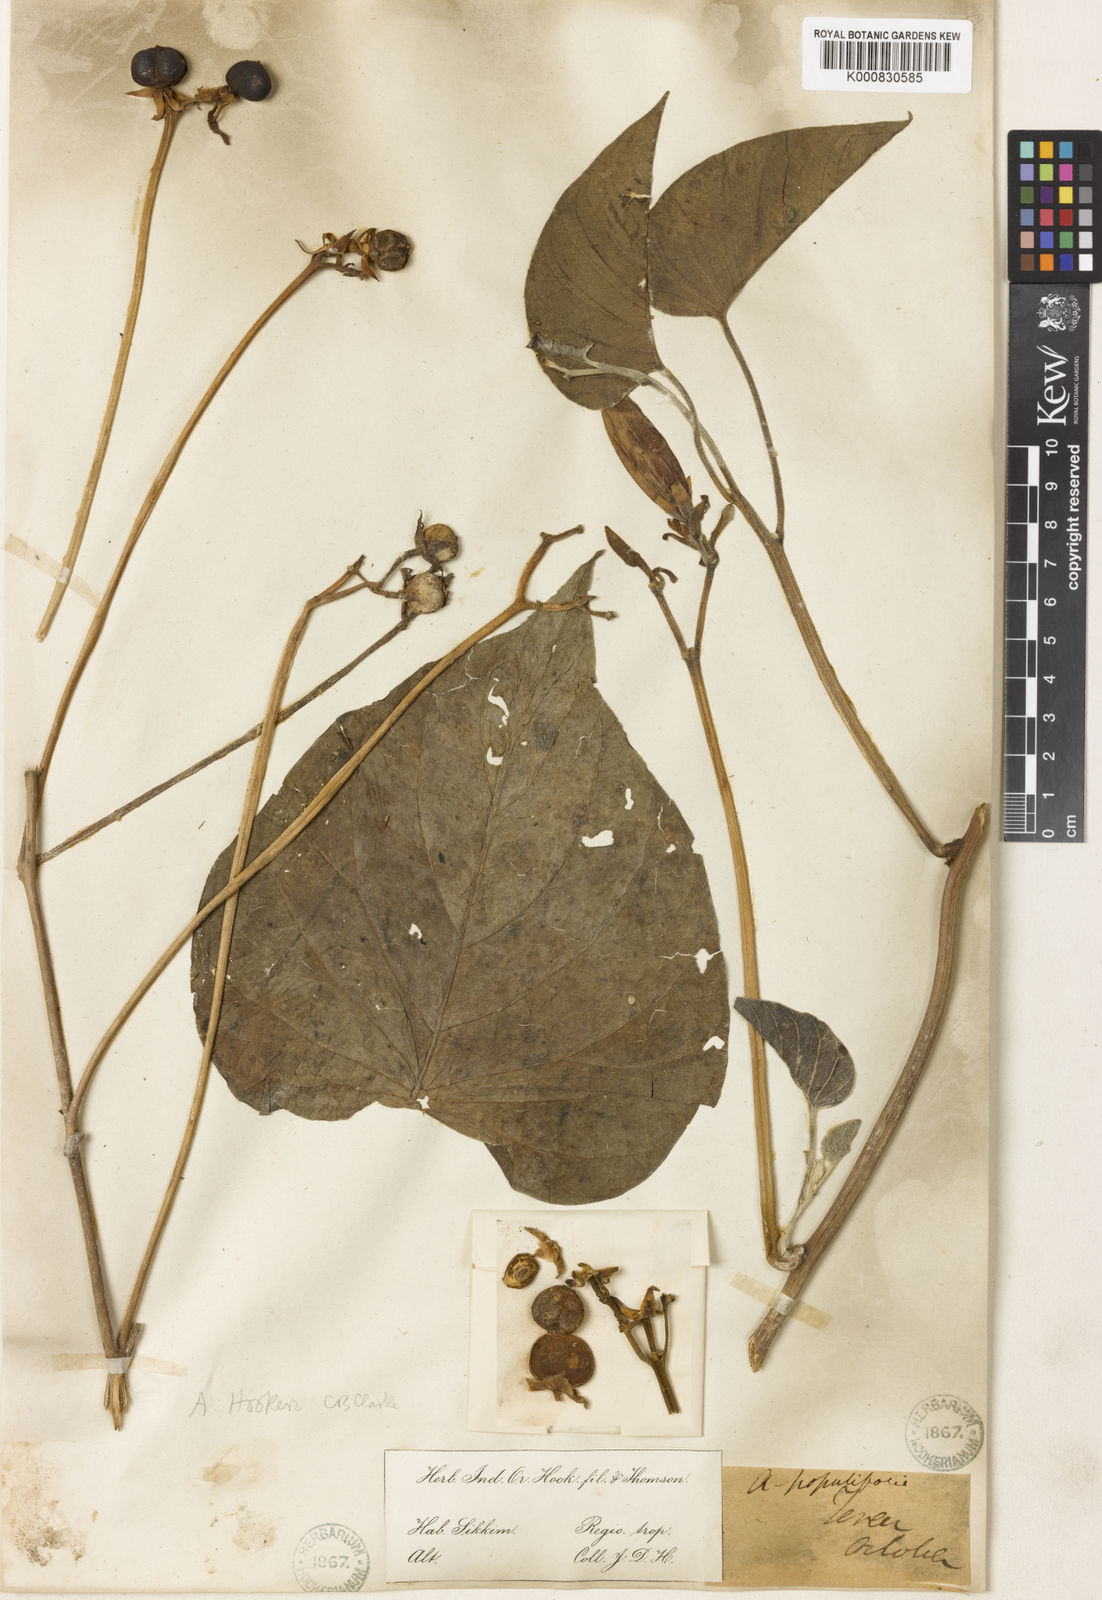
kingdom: Plantae
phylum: Tracheophyta
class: Magnoliopsida
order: Solanales
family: Convolvulaceae
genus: Argyreia
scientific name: Argyreia hookeri
